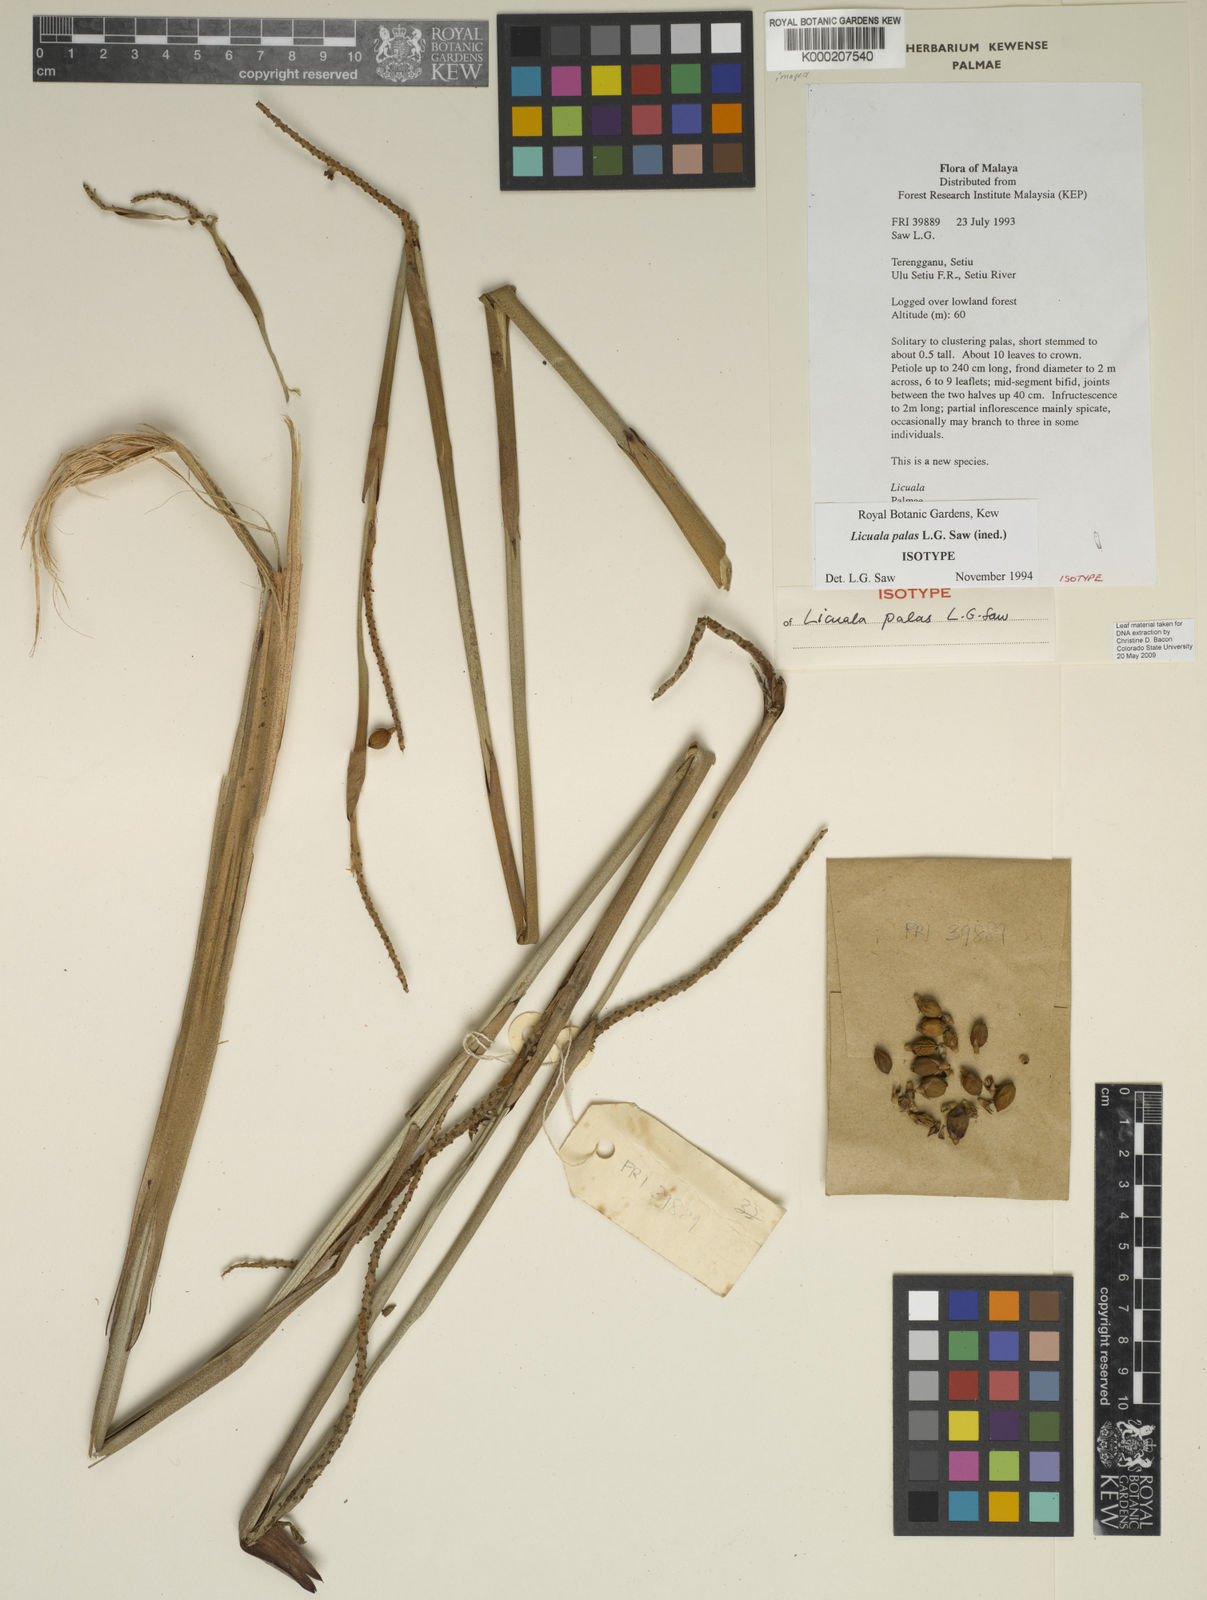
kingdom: Plantae
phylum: Tracheophyta
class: Liliopsida
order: Arecales
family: Arecaceae
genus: Licuala
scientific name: Licuala palas
